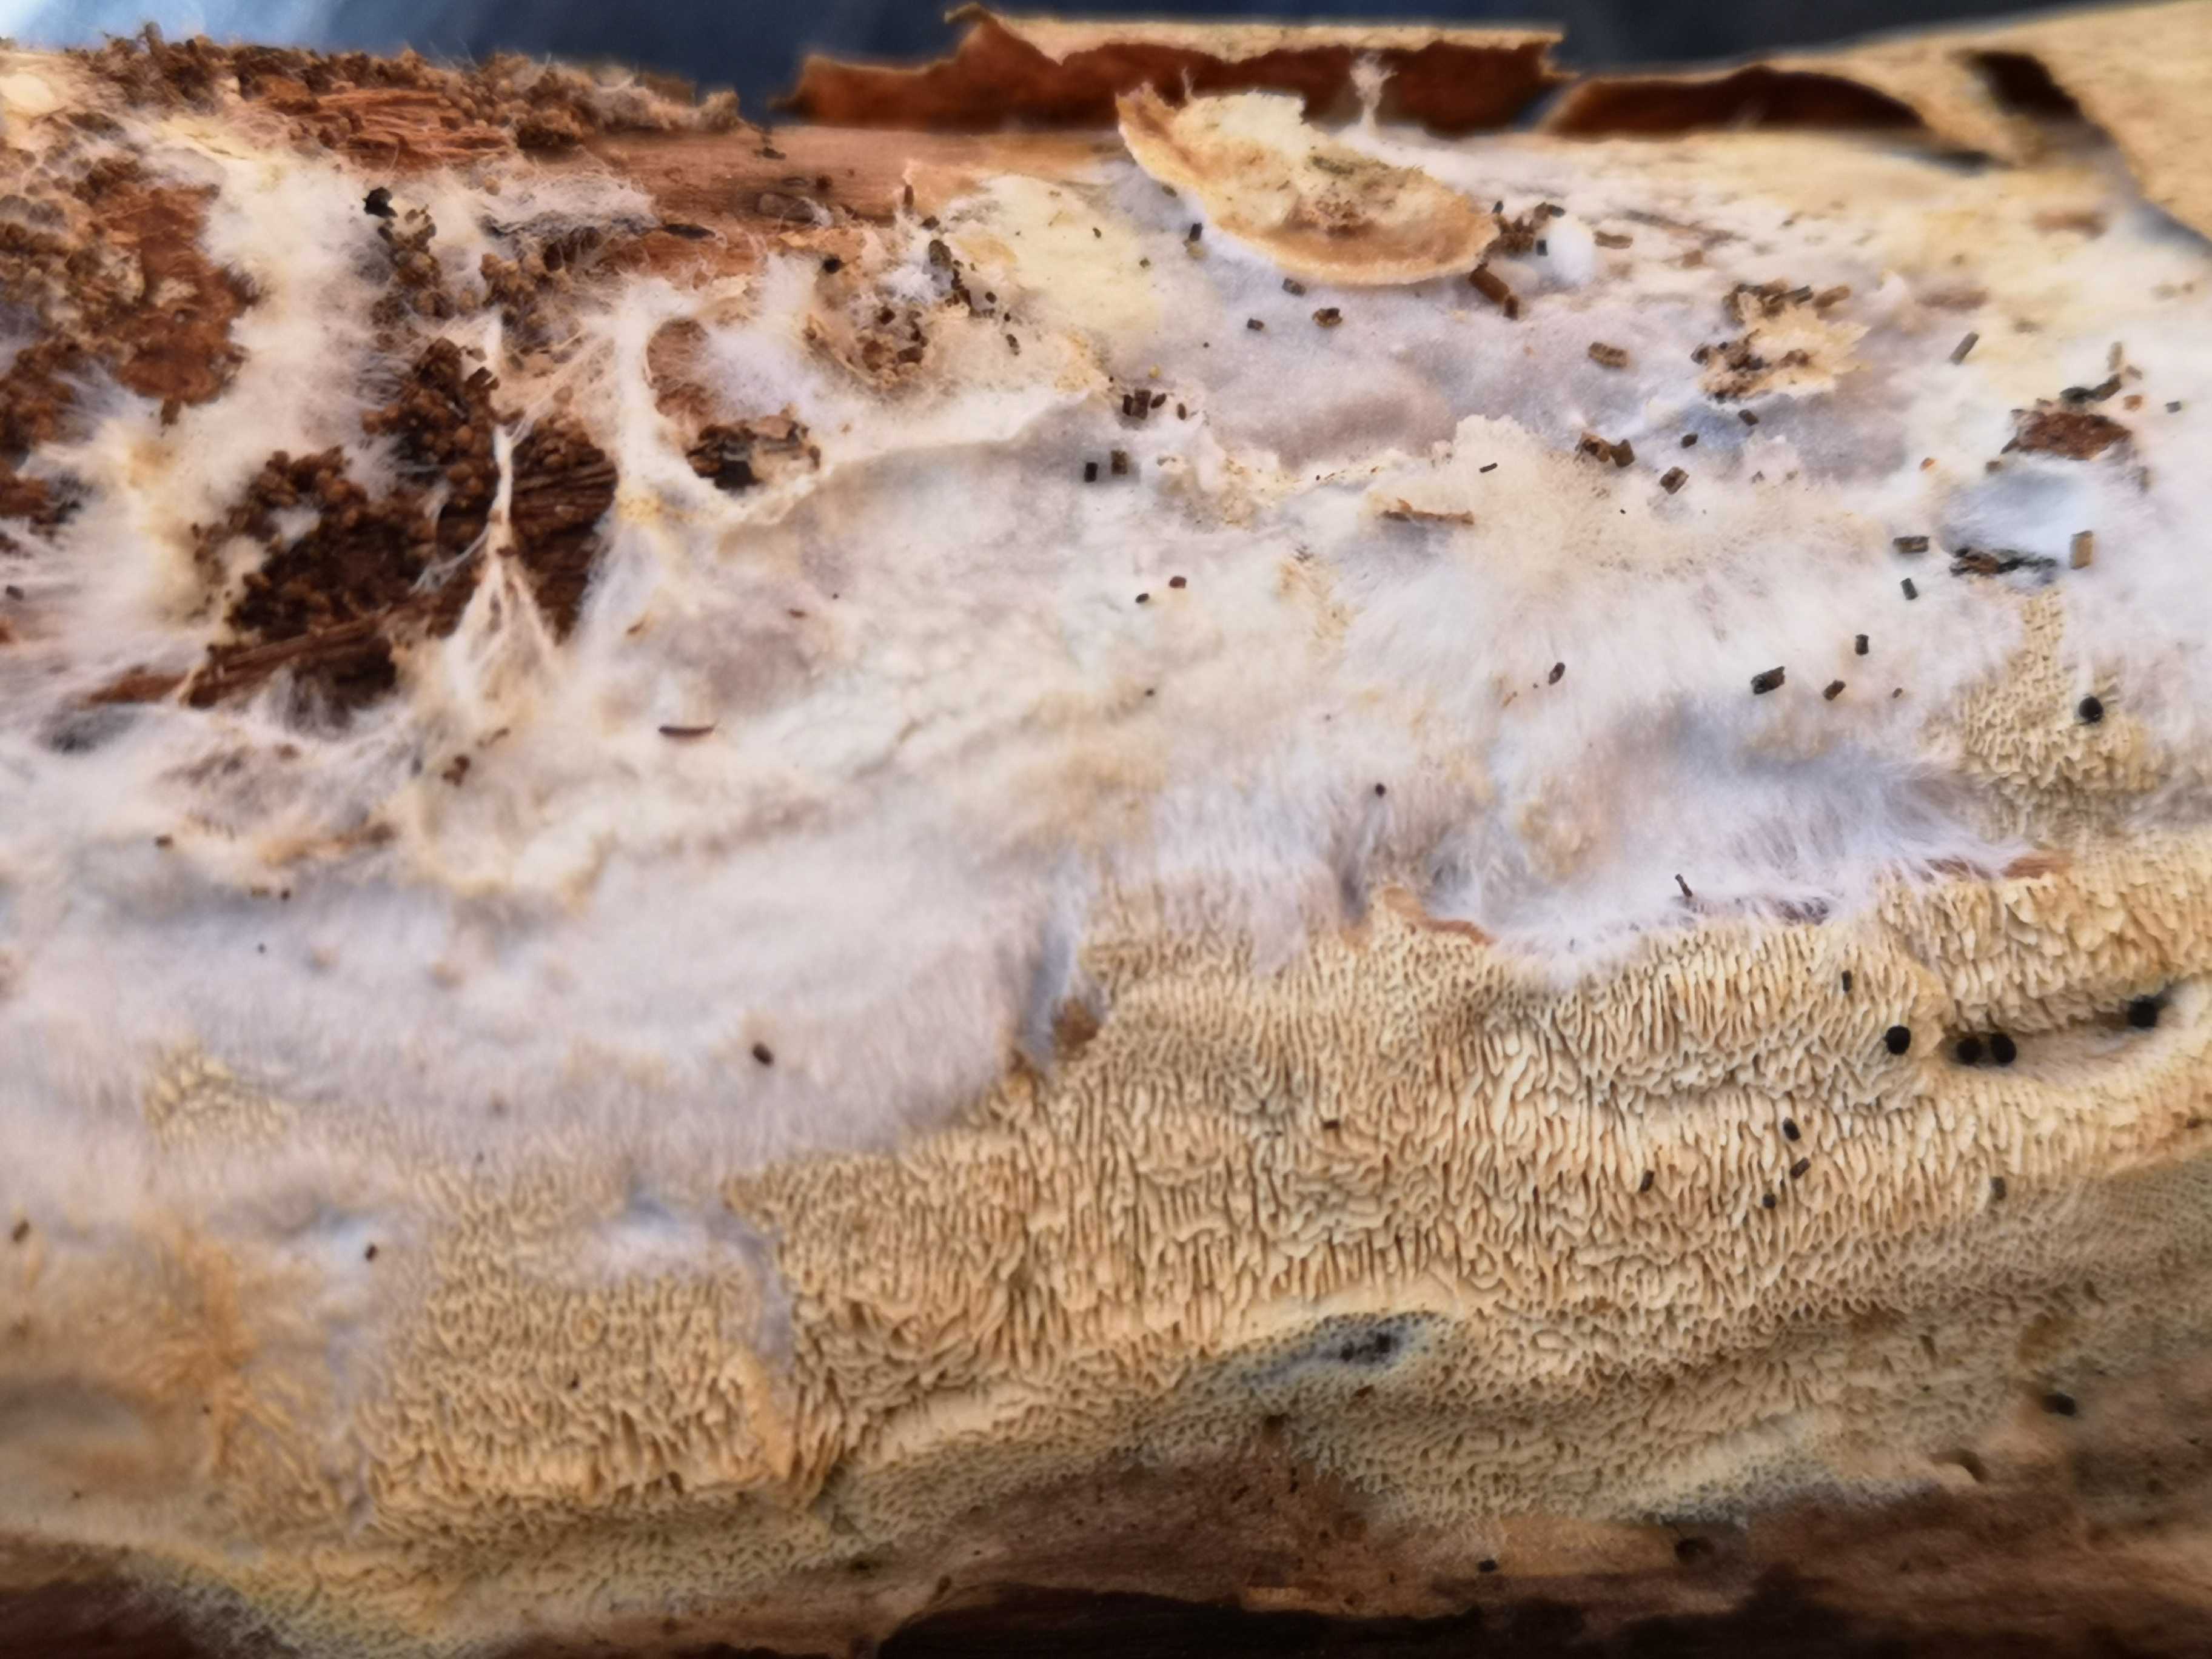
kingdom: Fungi
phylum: Basidiomycota
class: Agaricomycetes
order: Hymenochaetales
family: Schizoporaceae
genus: Xylodon
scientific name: Xylodon subtropicus
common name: labyrint-tandsvamp
